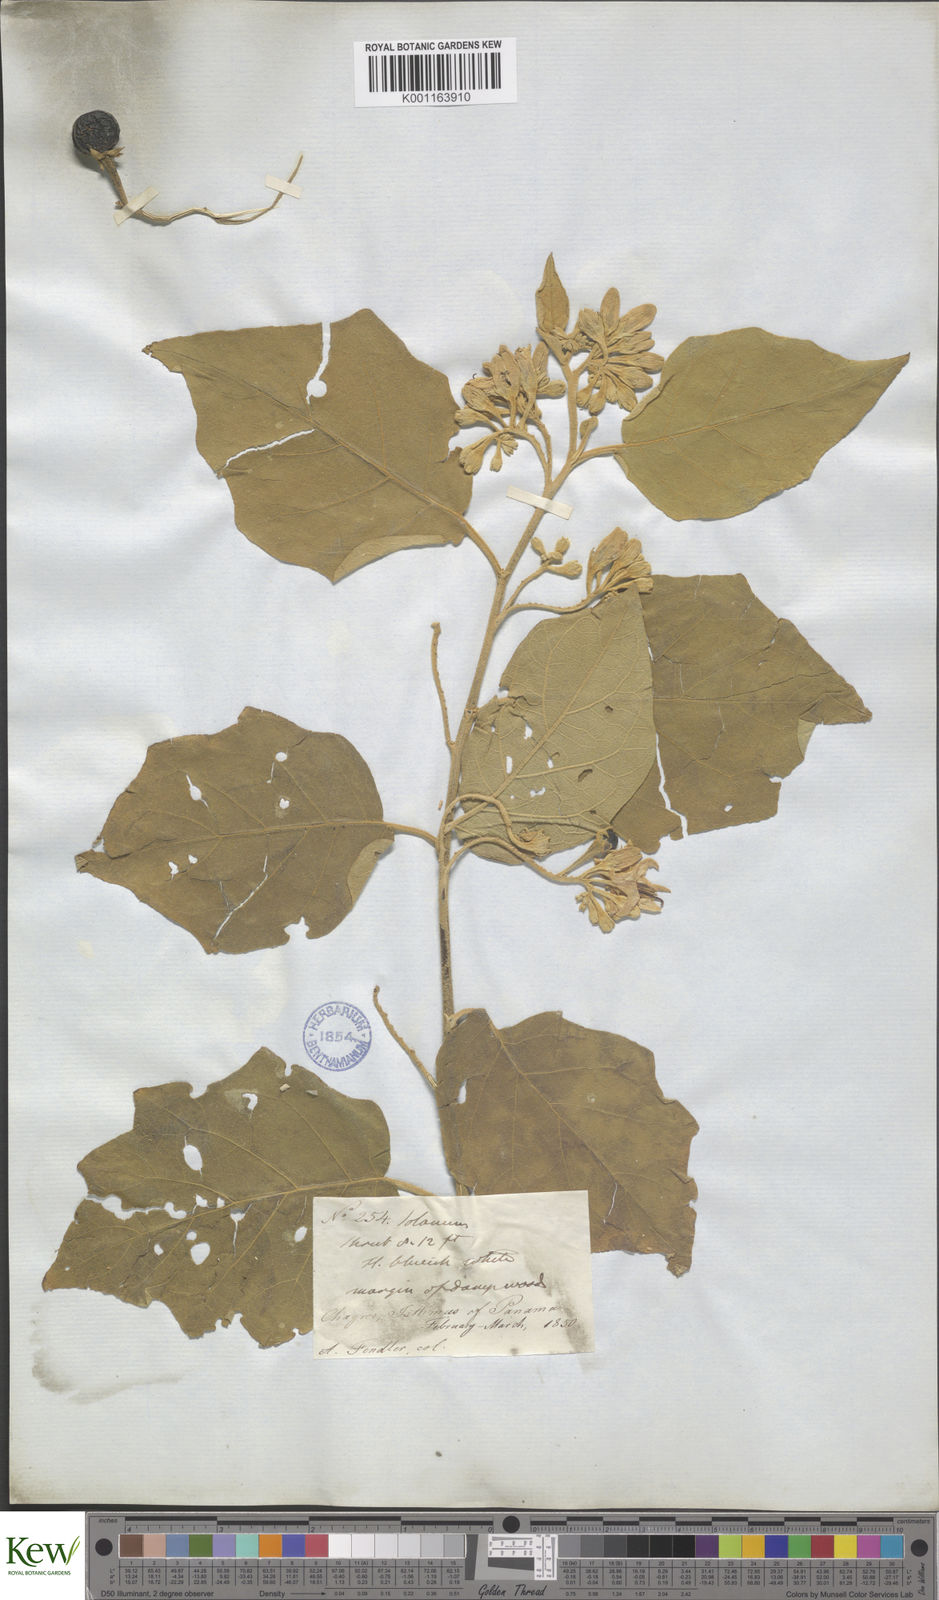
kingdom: Plantae
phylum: Tracheophyta
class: Magnoliopsida
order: Solanales
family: Solanaceae
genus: Solanum
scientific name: Solanum
